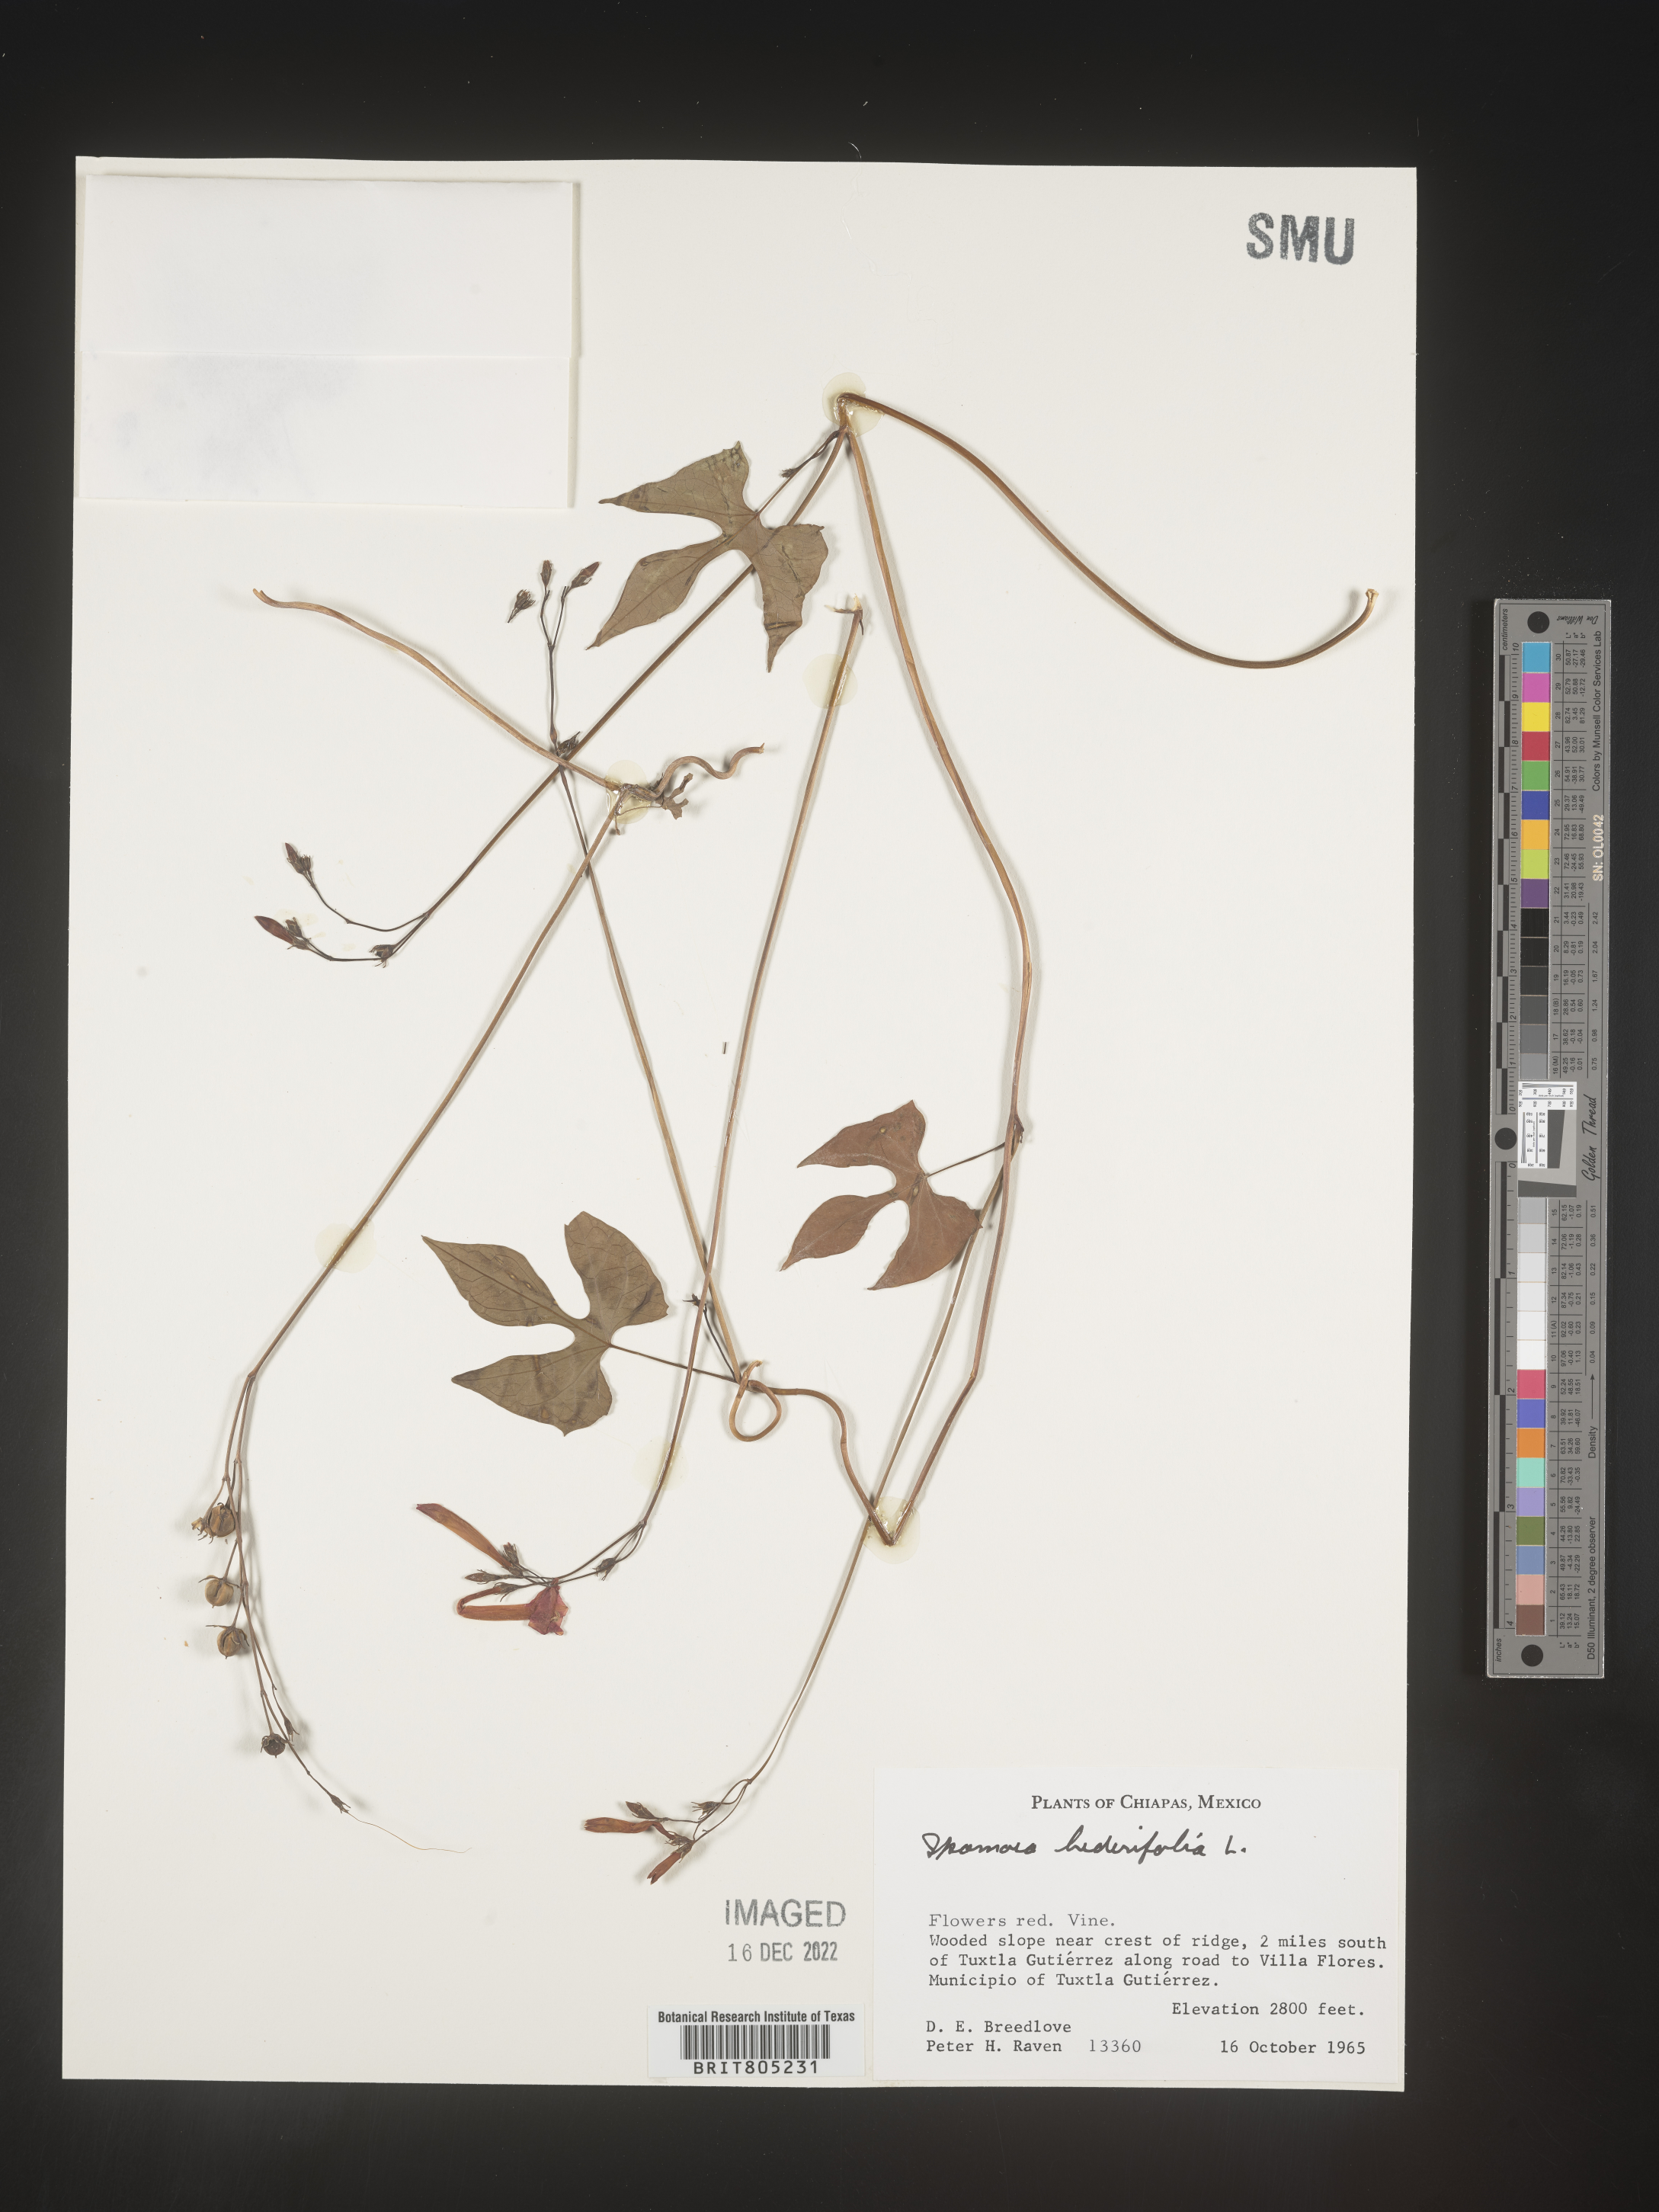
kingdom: Plantae
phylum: Tracheophyta
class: Magnoliopsida
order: Solanales
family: Convolvulaceae
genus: Ipomoea
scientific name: Ipomoea
